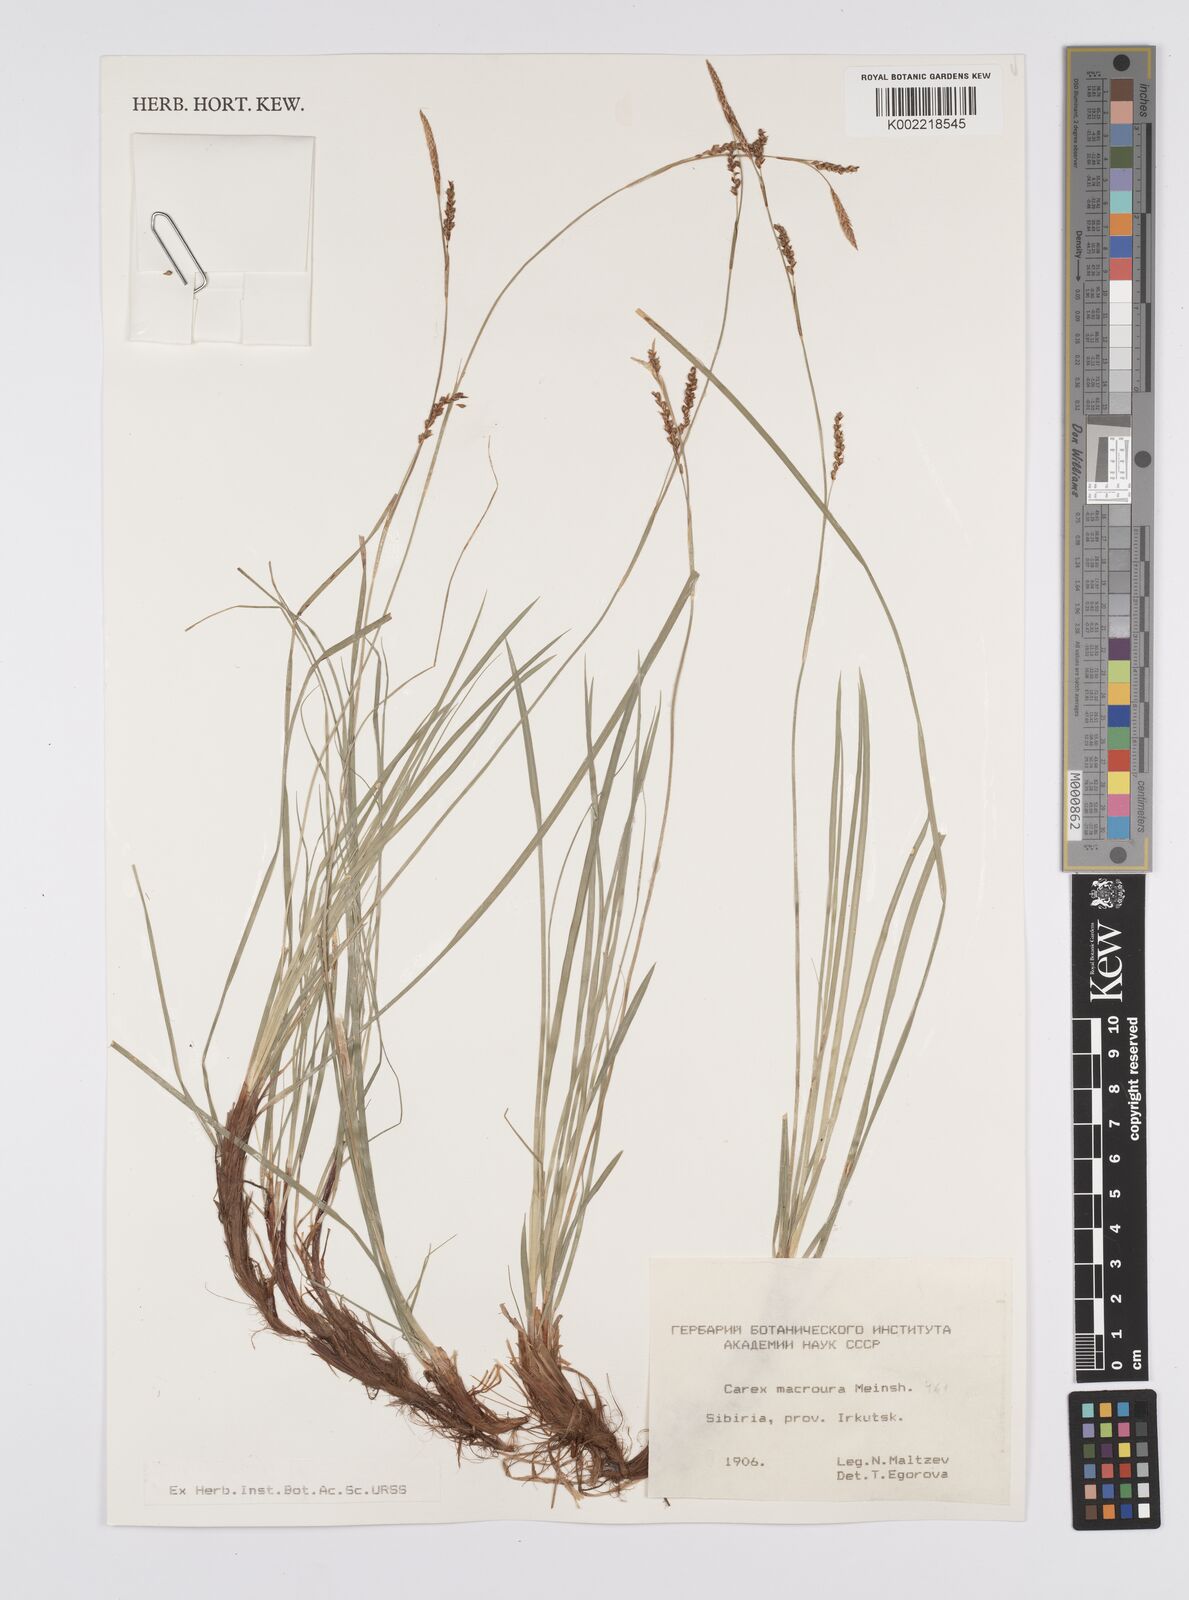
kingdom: Plantae
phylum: Tracheophyta
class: Liliopsida
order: Poales
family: Cyperaceae
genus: Carex
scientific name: Carex pediformis
